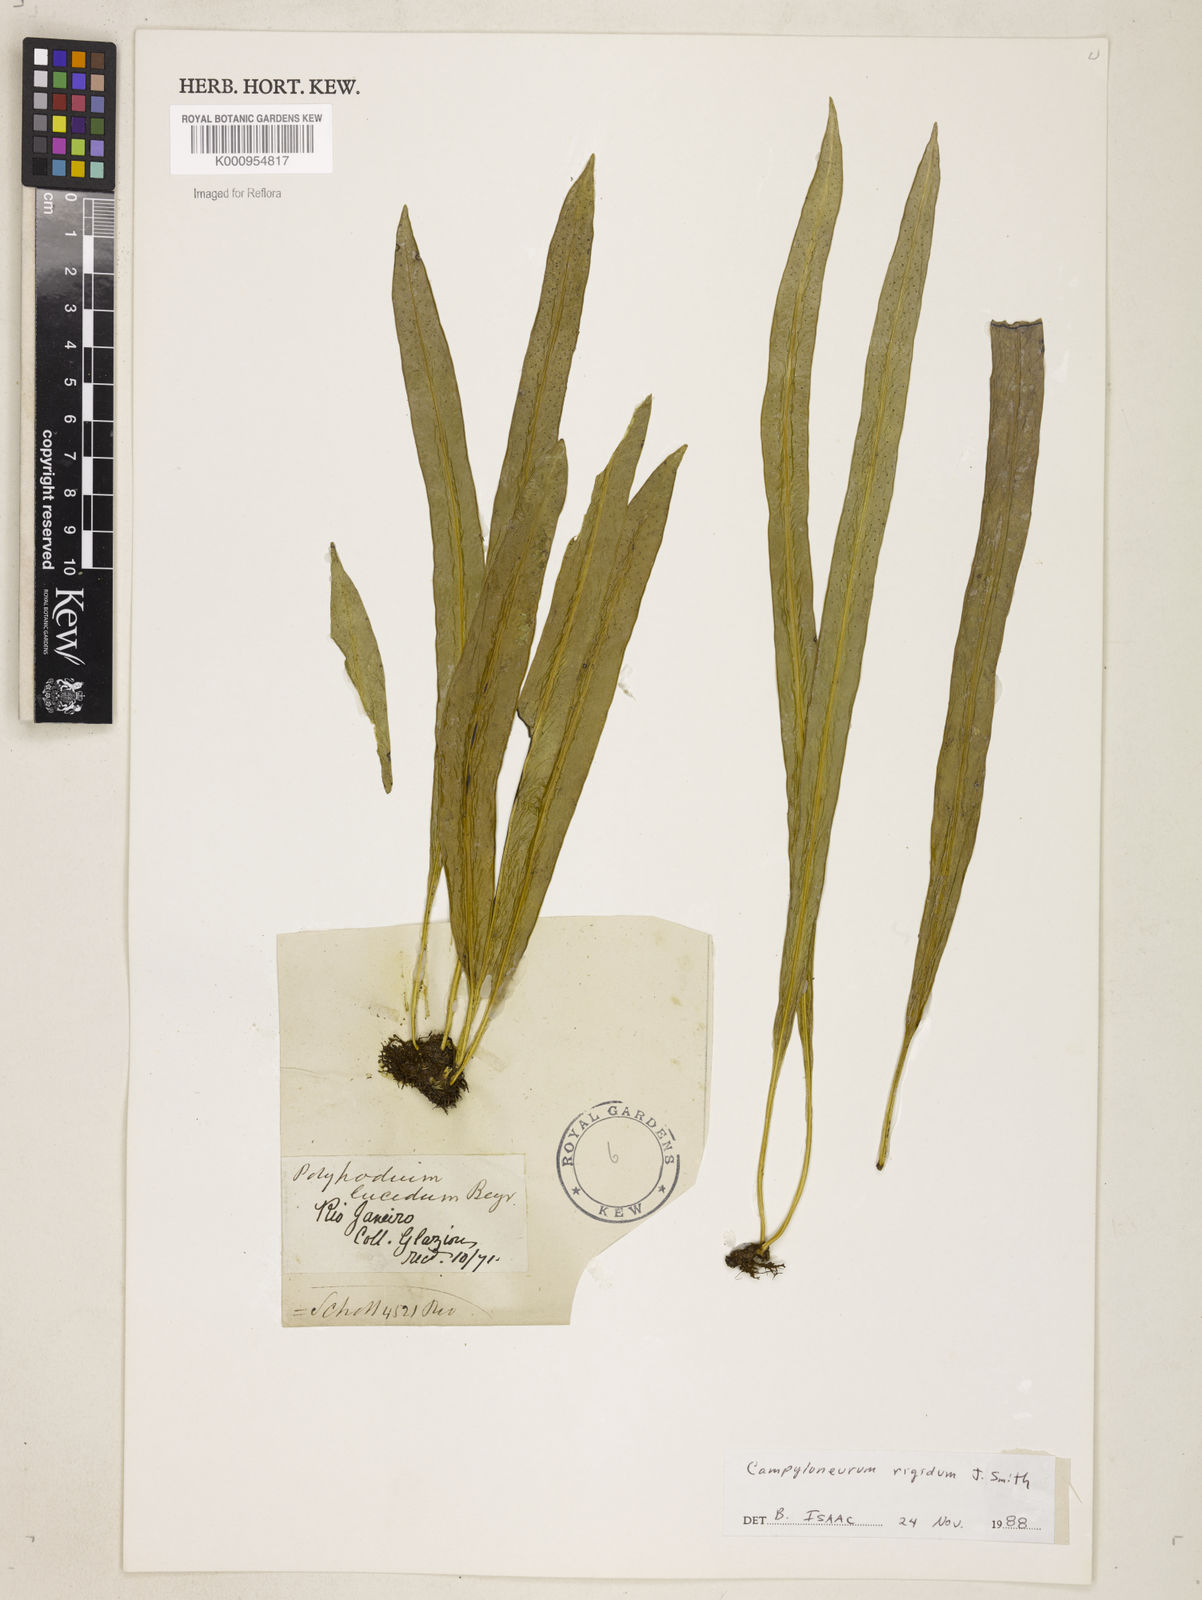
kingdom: Plantae
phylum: Tracheophyta
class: Polypodiopsida
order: Polypodiales
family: Polypodiaceae
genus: Campyloneurum
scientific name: Campyloneurum rigidum
